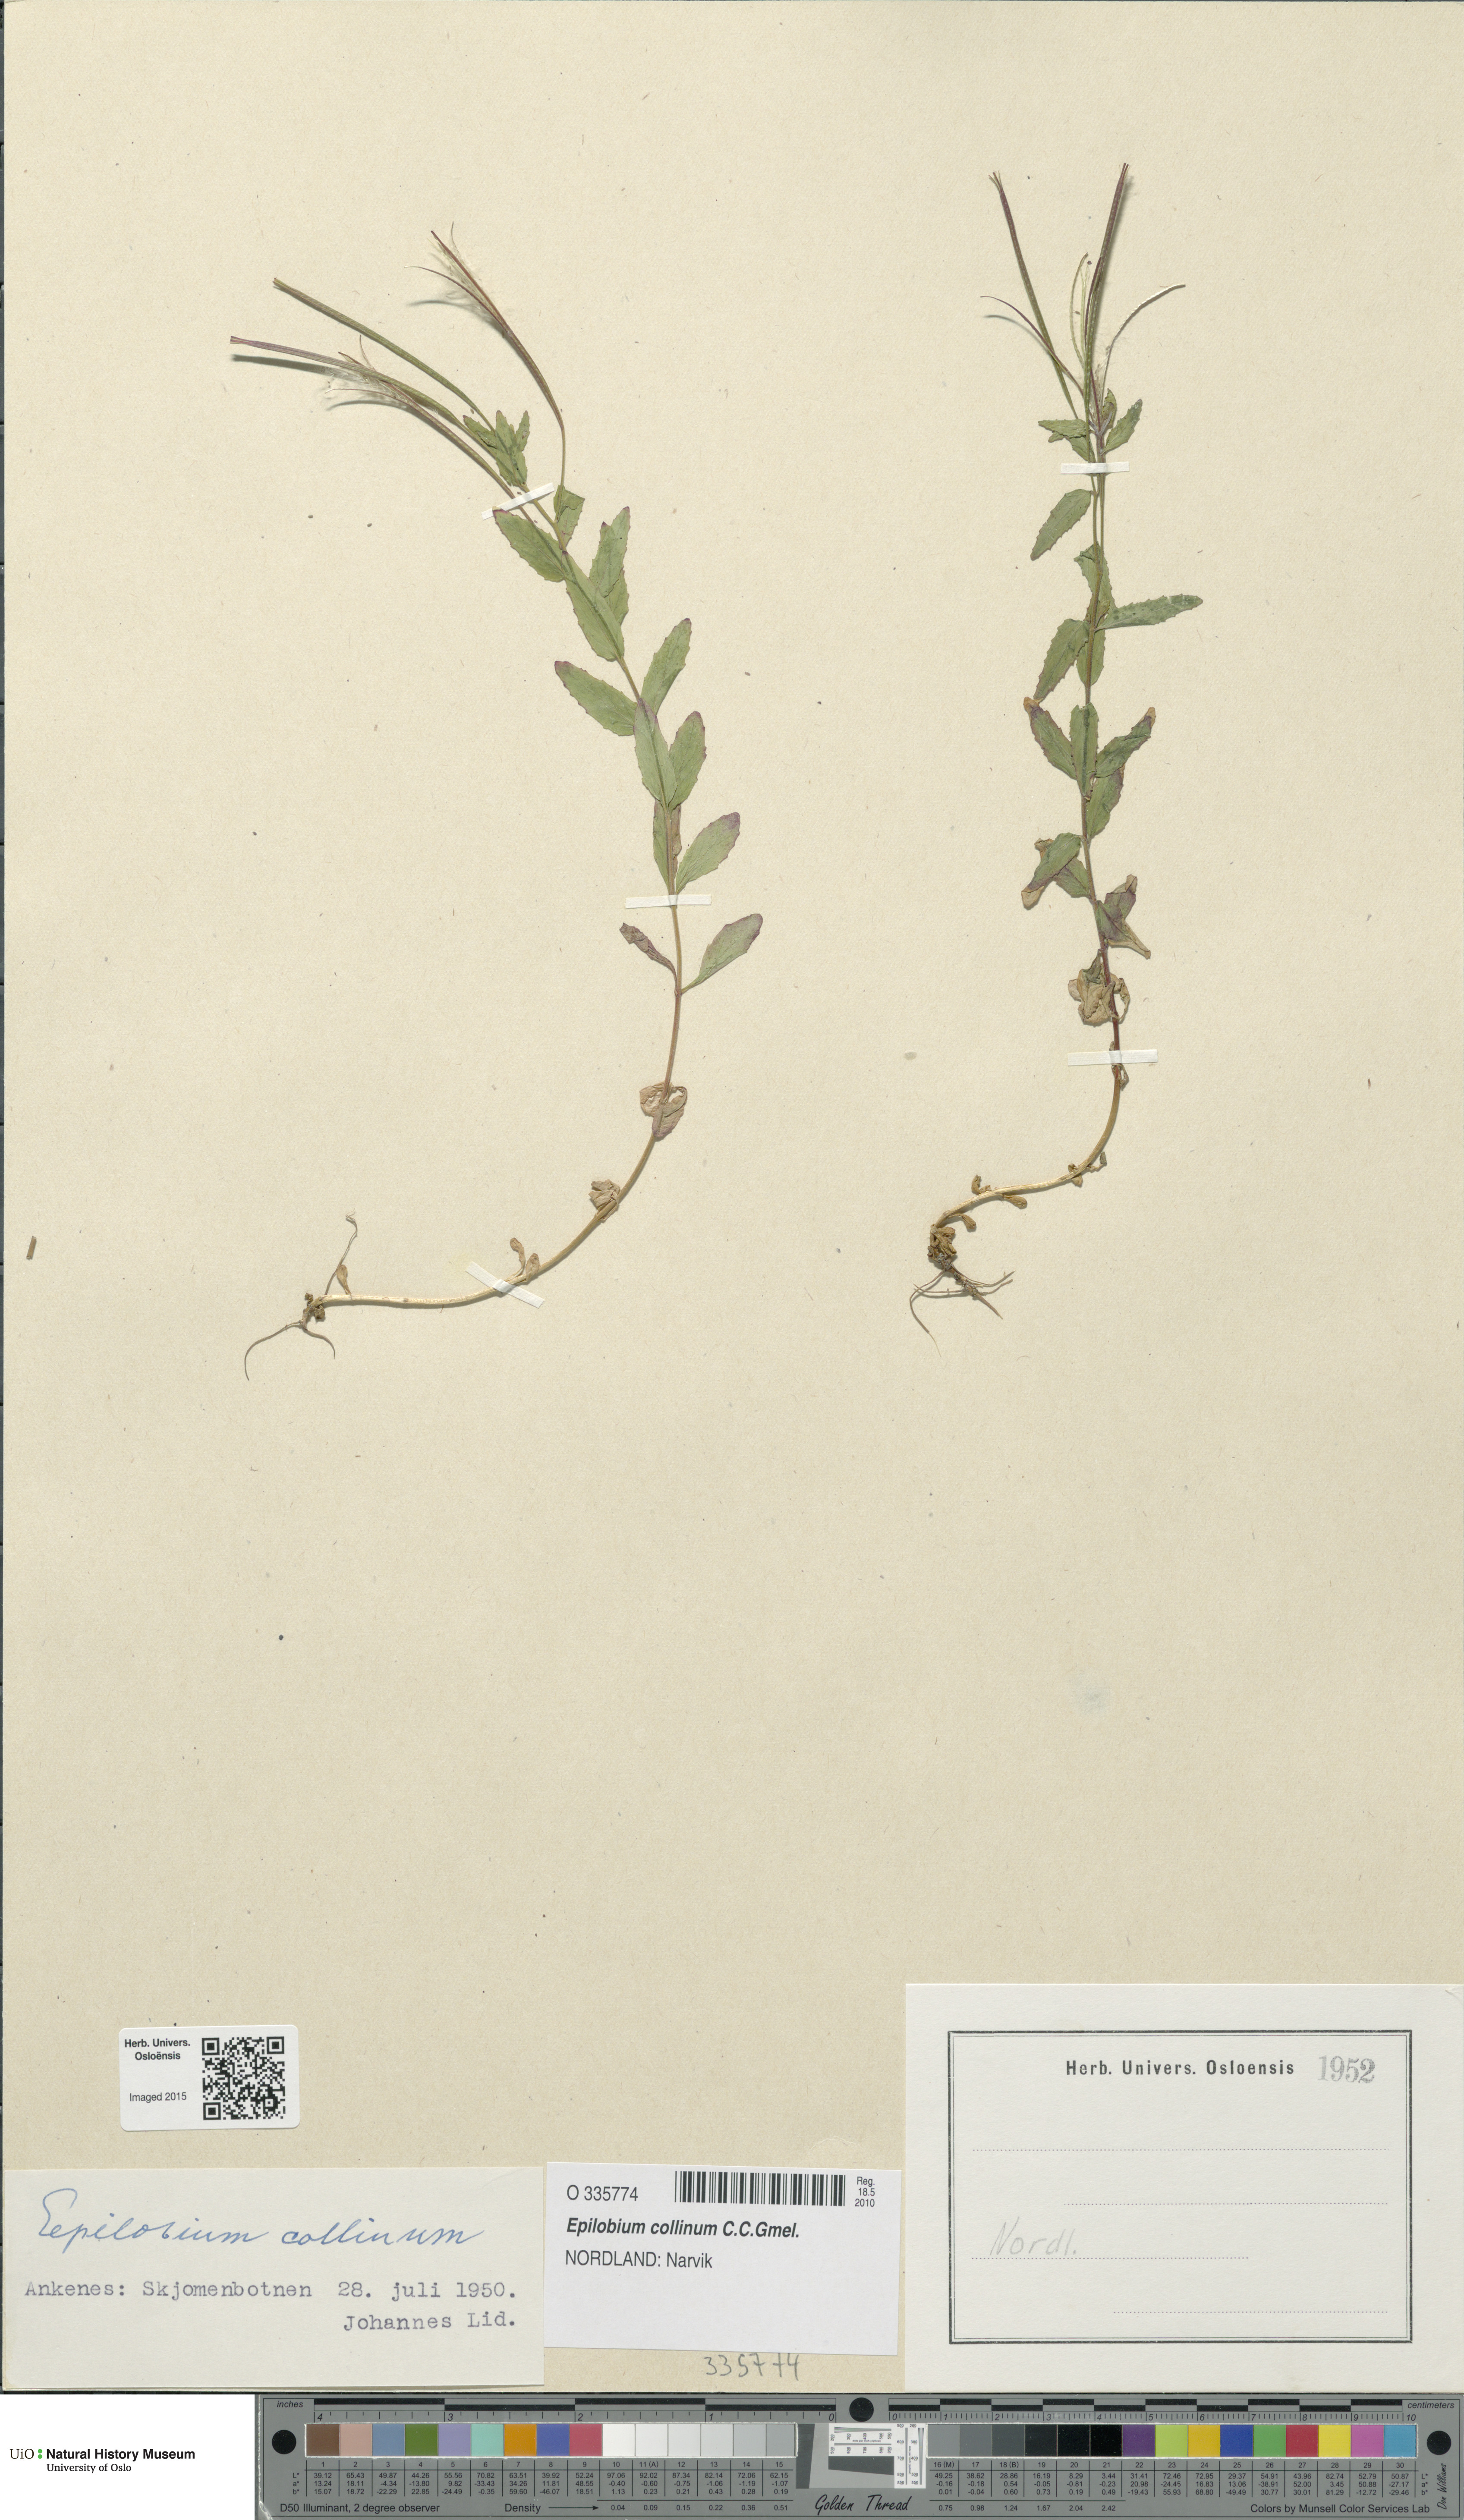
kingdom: Plantae
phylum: Tracheophyta
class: Magnoliopsida
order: Myrtales
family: Onagraceae
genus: Epilobium
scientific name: Epilobium collinum
